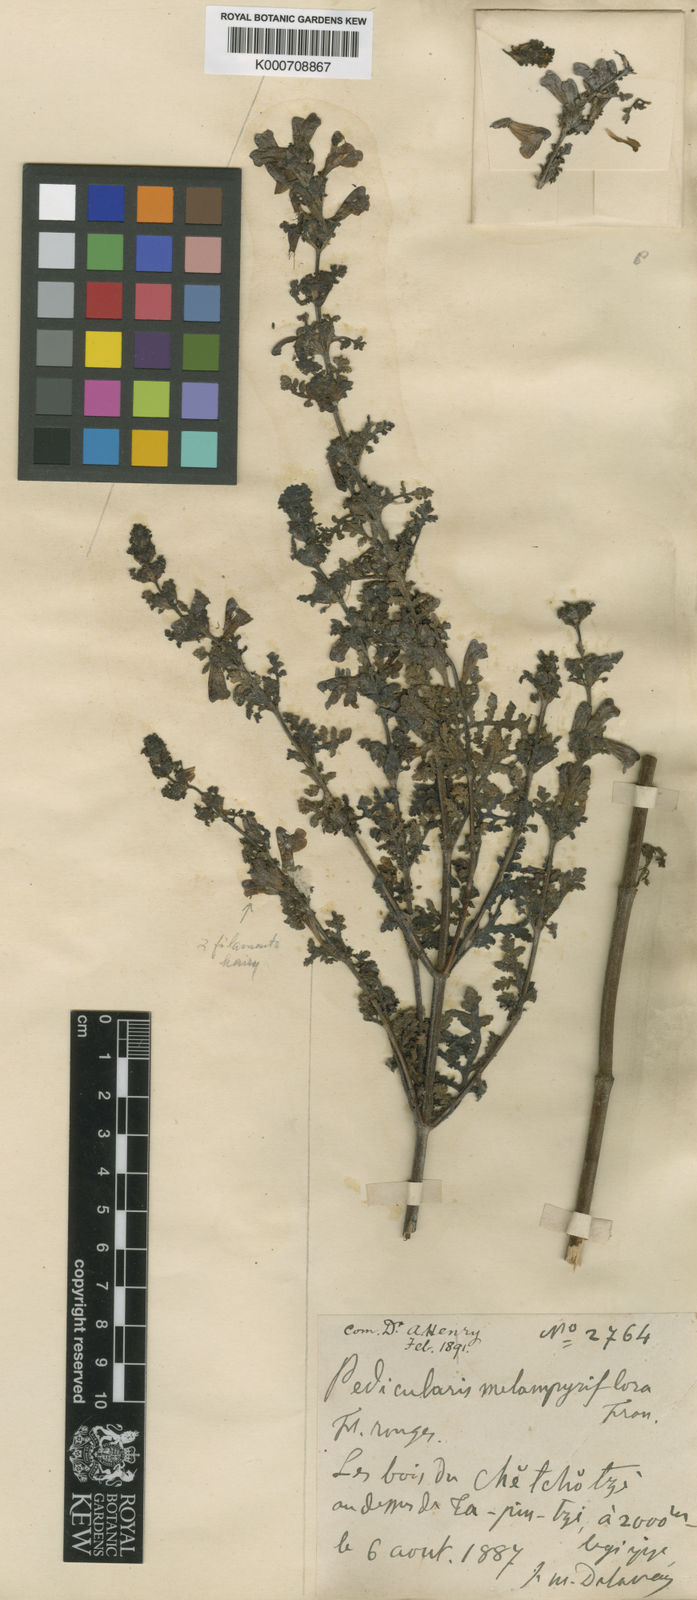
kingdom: Plantae
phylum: Tracheophyta
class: Magnoliopsida
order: Lamiales
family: Orobanchaceae
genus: Pedicularis
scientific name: Pedicularis
